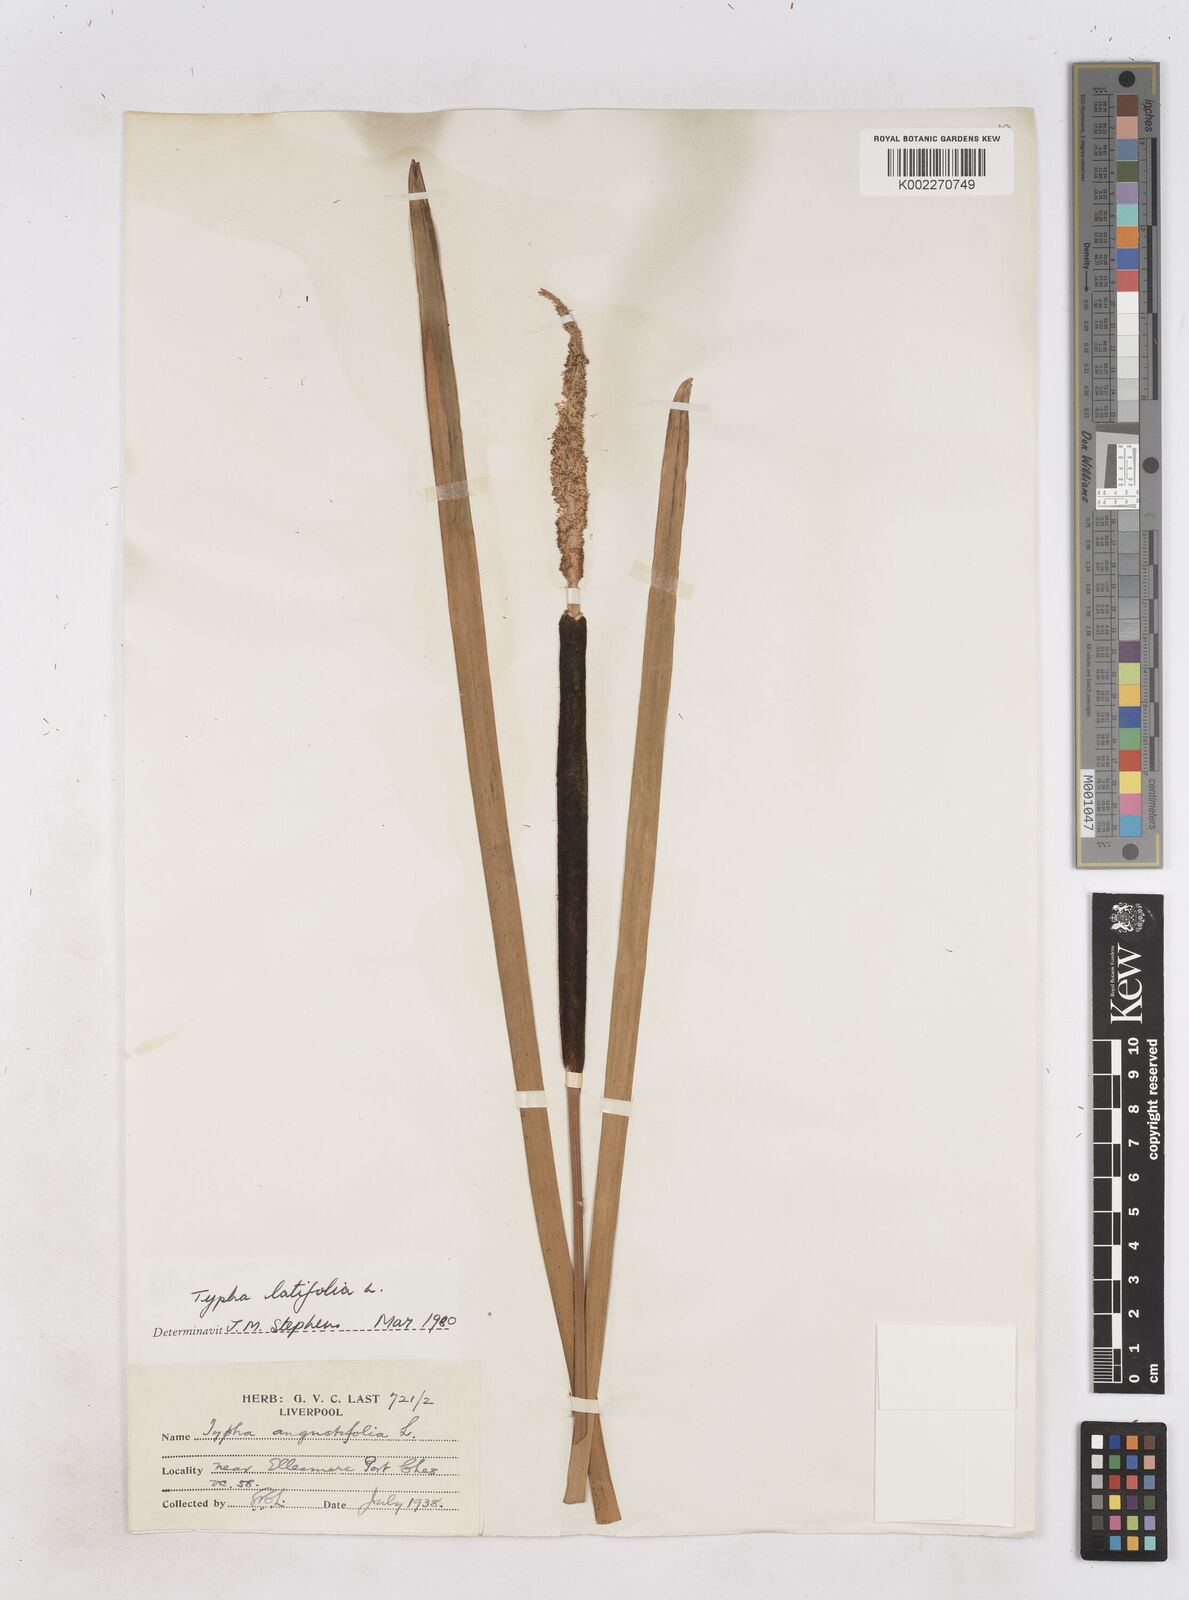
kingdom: Plantae
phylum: Tracheophyta
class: Liliopsida
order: Poales
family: Typhaceae
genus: Typha
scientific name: Typha latifolia
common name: Broadleaf cattail
